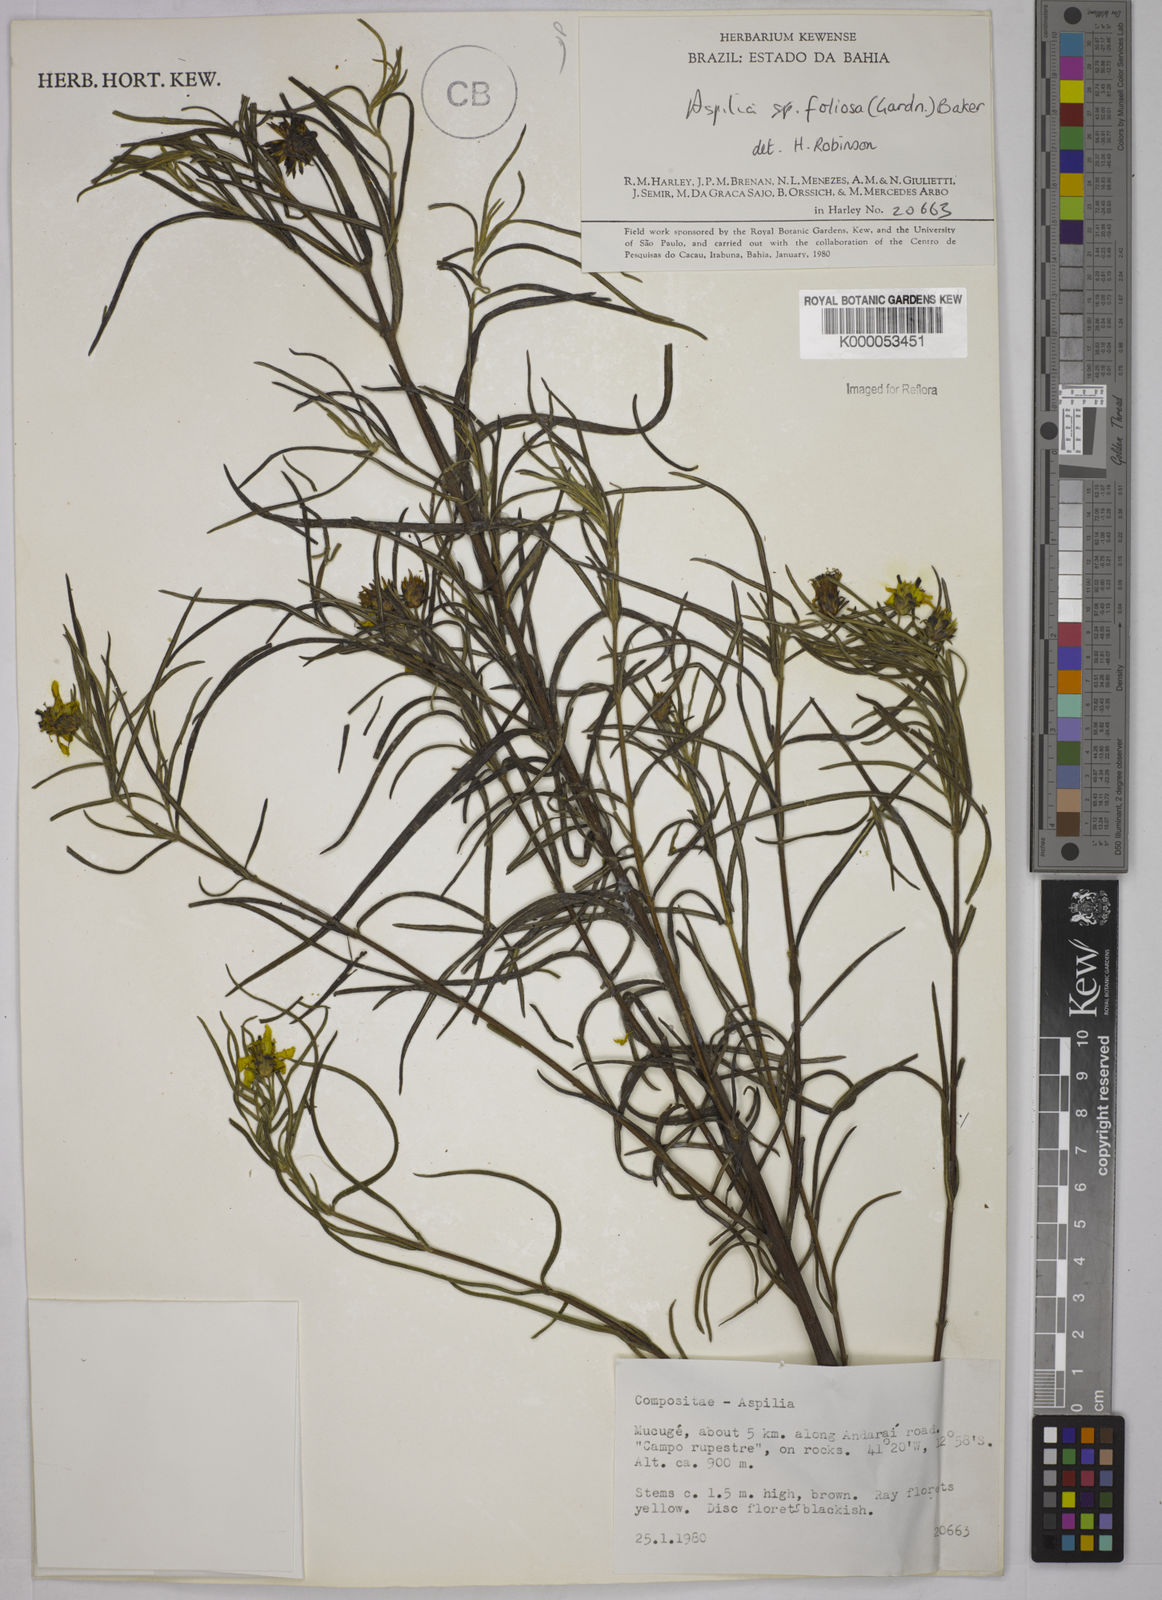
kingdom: Plantae
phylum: Tracheophyta
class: Magnoliopsida
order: Asterales
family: Asteraceae
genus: Aspilia
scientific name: Aspilia
